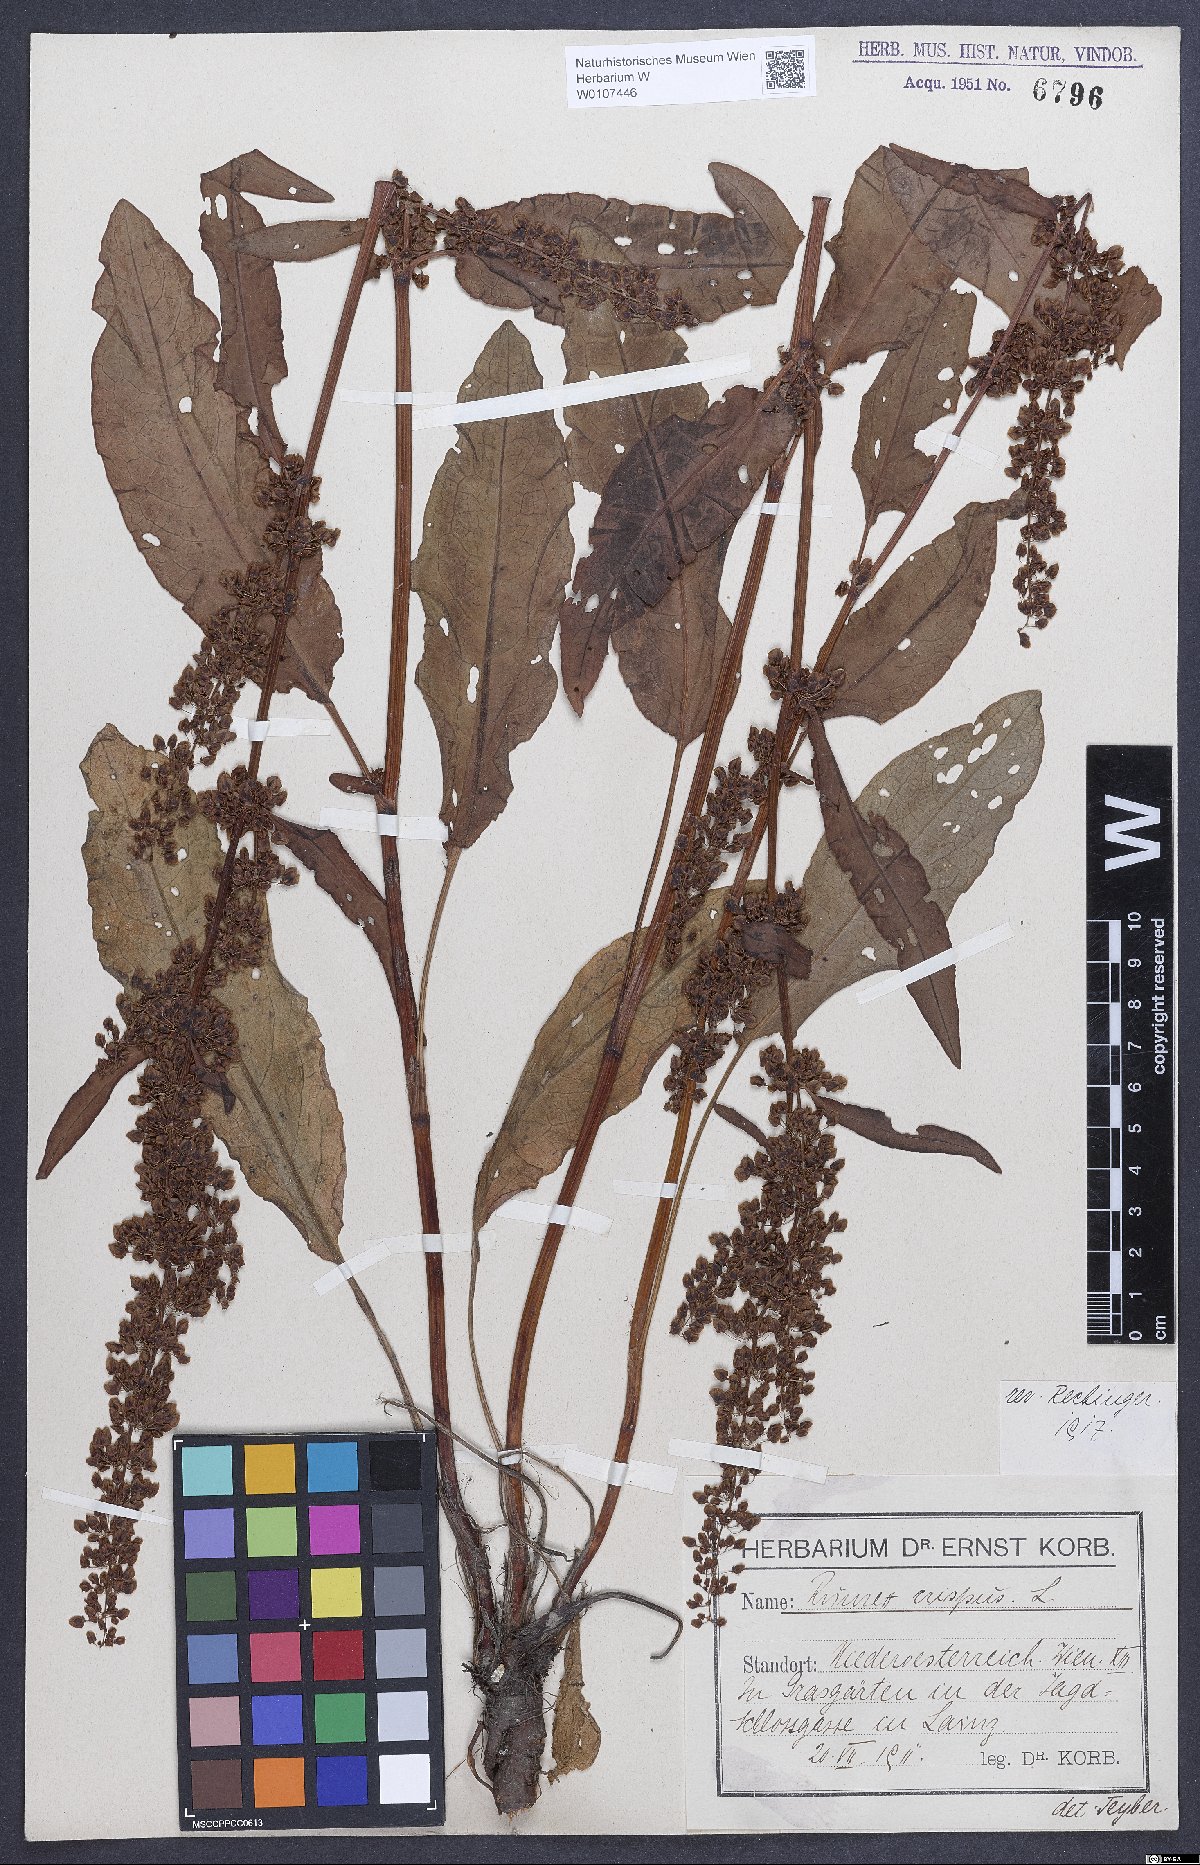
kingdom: Plantae
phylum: Tracheophyta
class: Magnoliopsida
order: Caryophyllales
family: Polygonaceae
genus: Rumex
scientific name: Rumex crispus
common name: Curled dock
